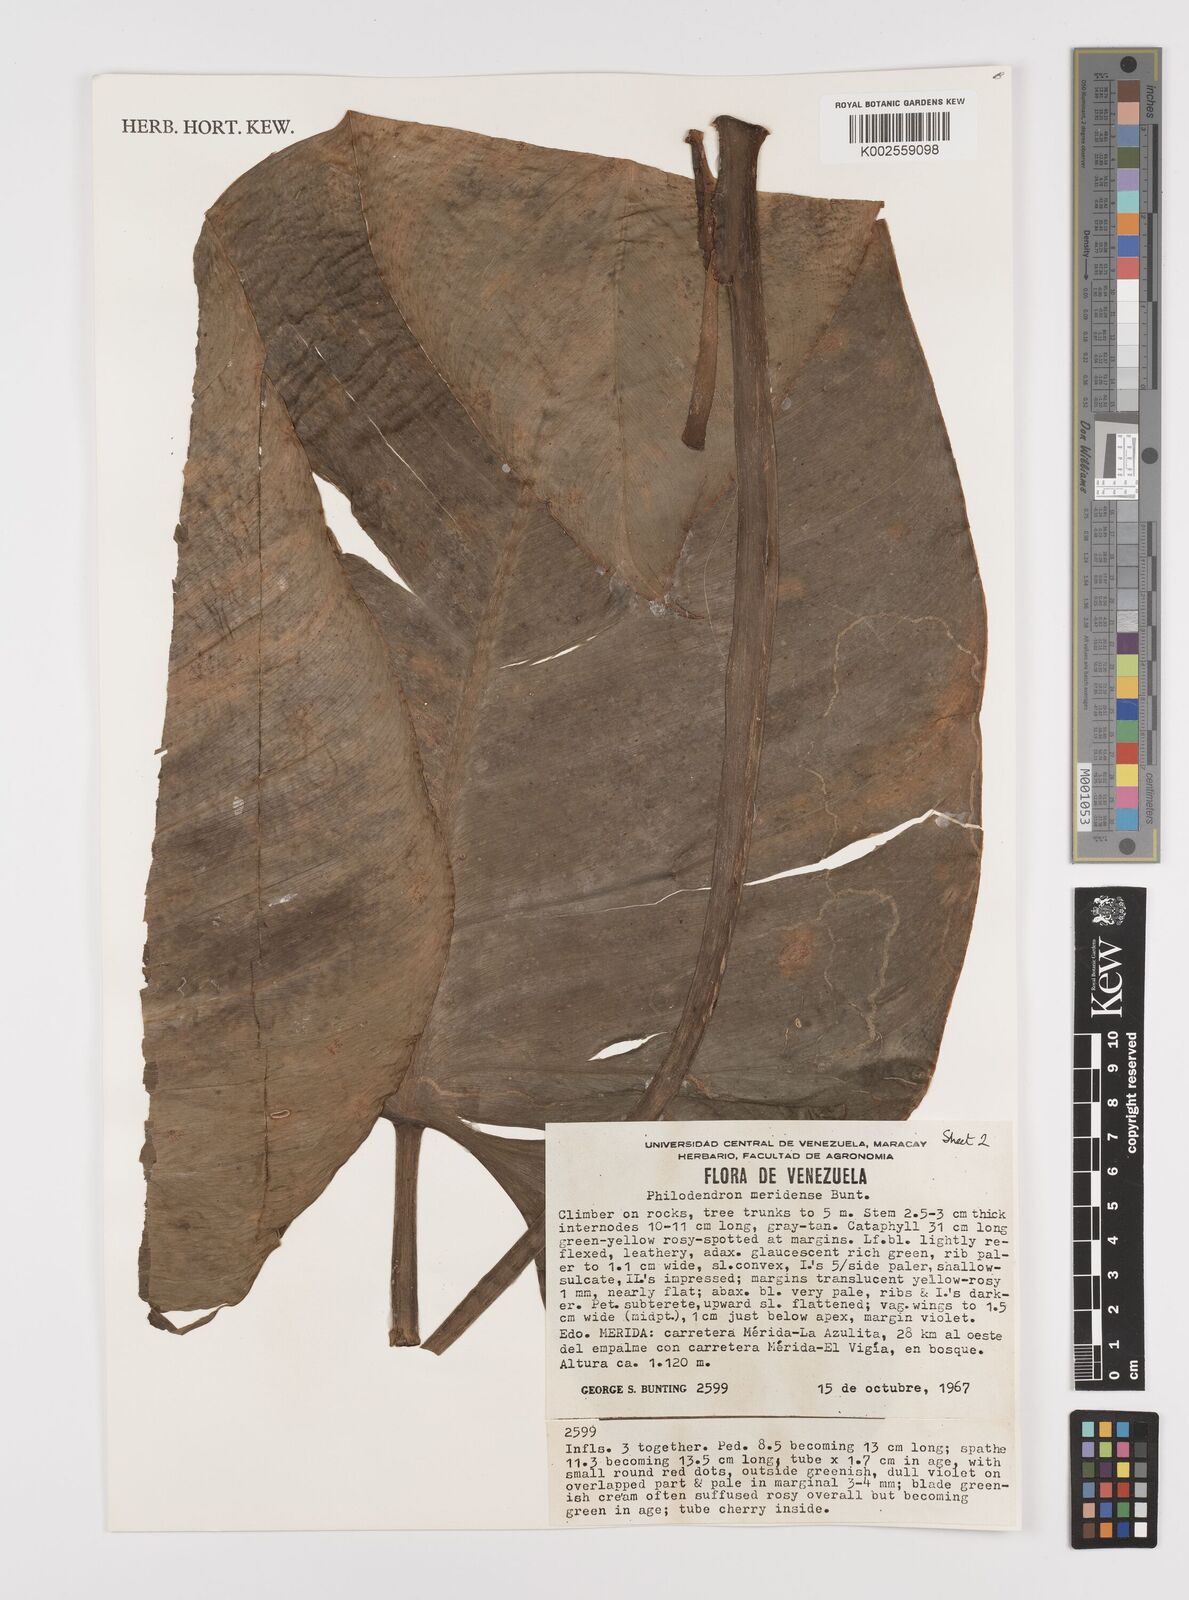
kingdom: Plantae
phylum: Tracheophyta
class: Liliopsida
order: Alismatales
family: Araceae
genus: Philodendron
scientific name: Philodendron meridense
